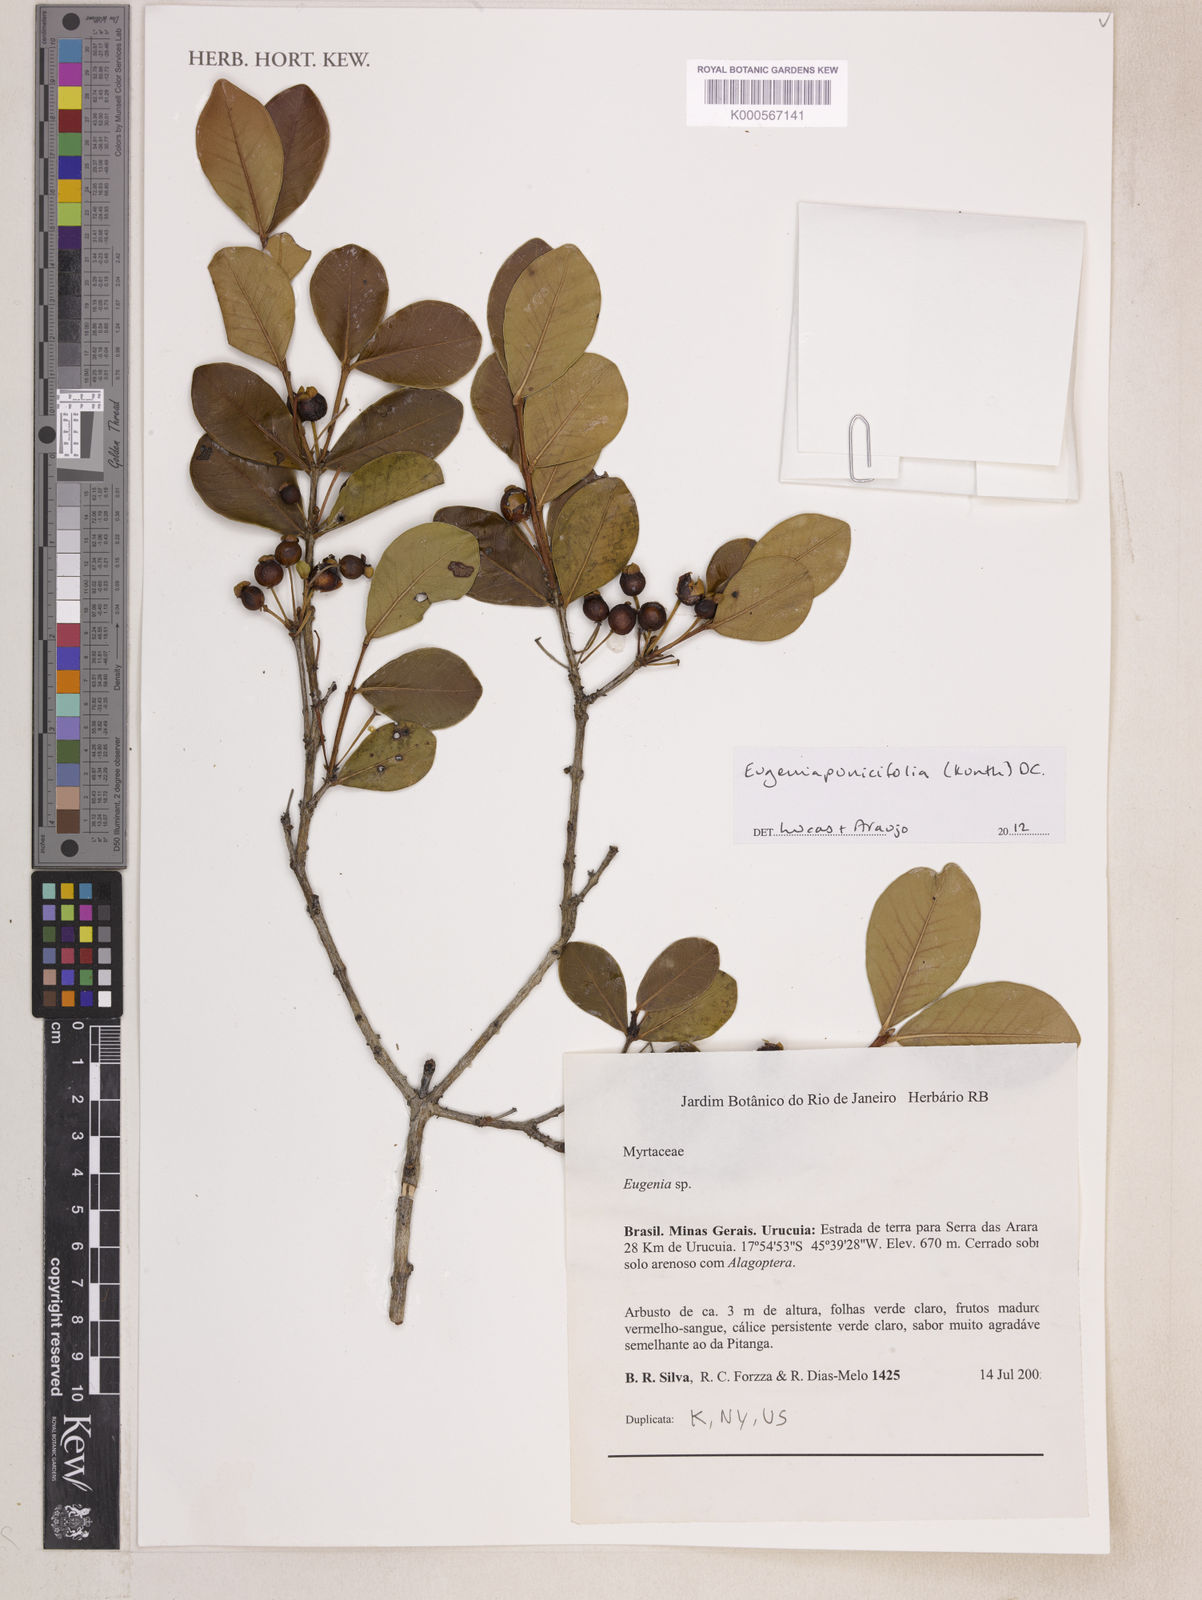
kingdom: Plantae
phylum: Tracheophyta
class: Magnoliopsida
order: Myrtales
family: Myrtaceae
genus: Eugenia
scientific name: Eugenia punicifolia
